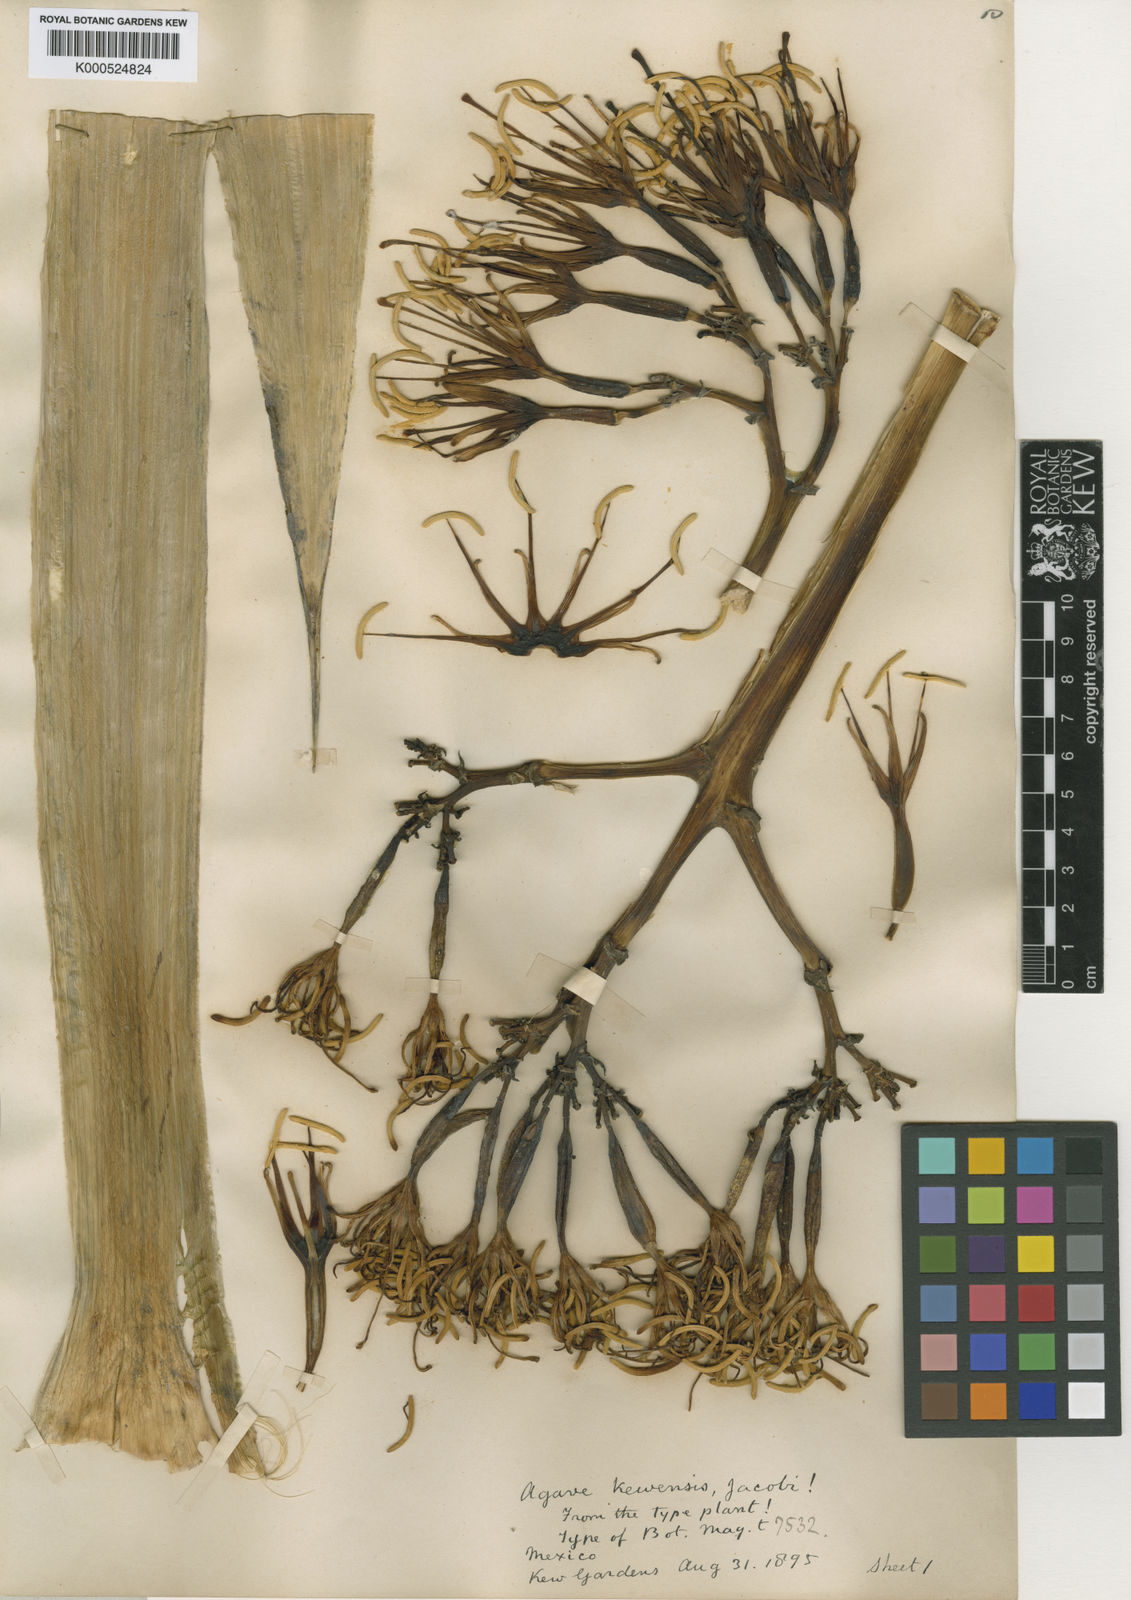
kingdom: Plantae
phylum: Tracheophyta
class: Liliopsida
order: Asparagales
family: Asparagaceae
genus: Agave
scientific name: Agave kewensis
